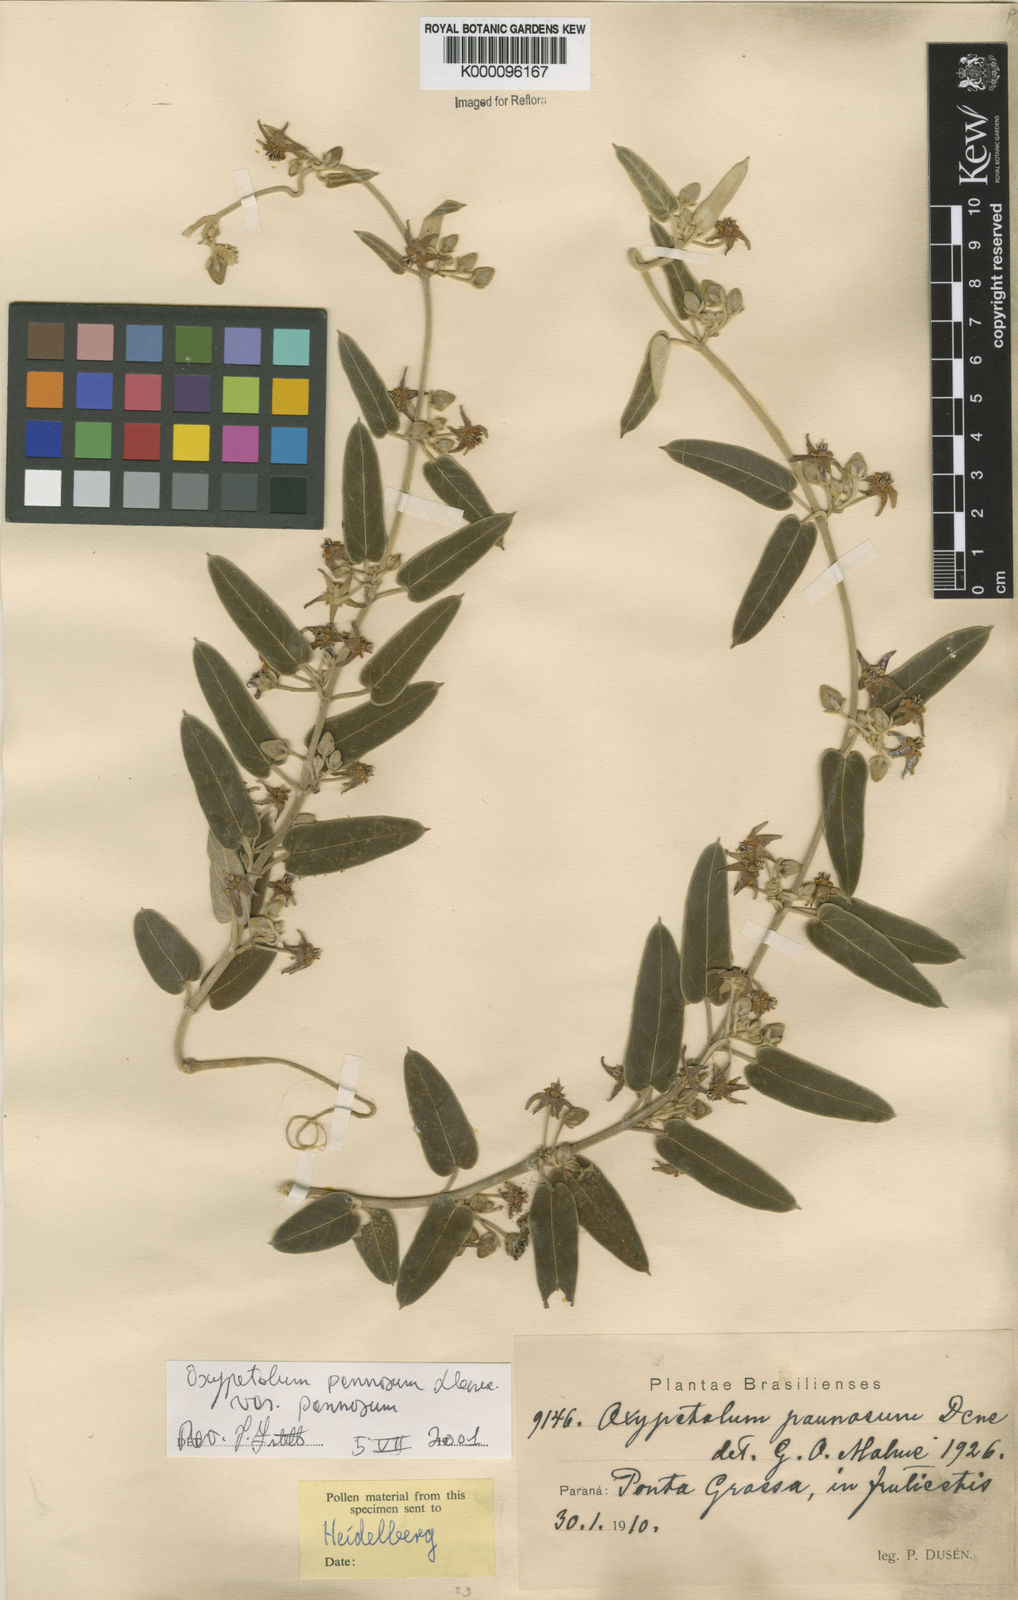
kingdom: Plantae
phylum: Tracheophyta
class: Magnoliopsida
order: Gentianales
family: Apocynaceae
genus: Oxypetalum
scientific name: Oxypetalum pannosum
